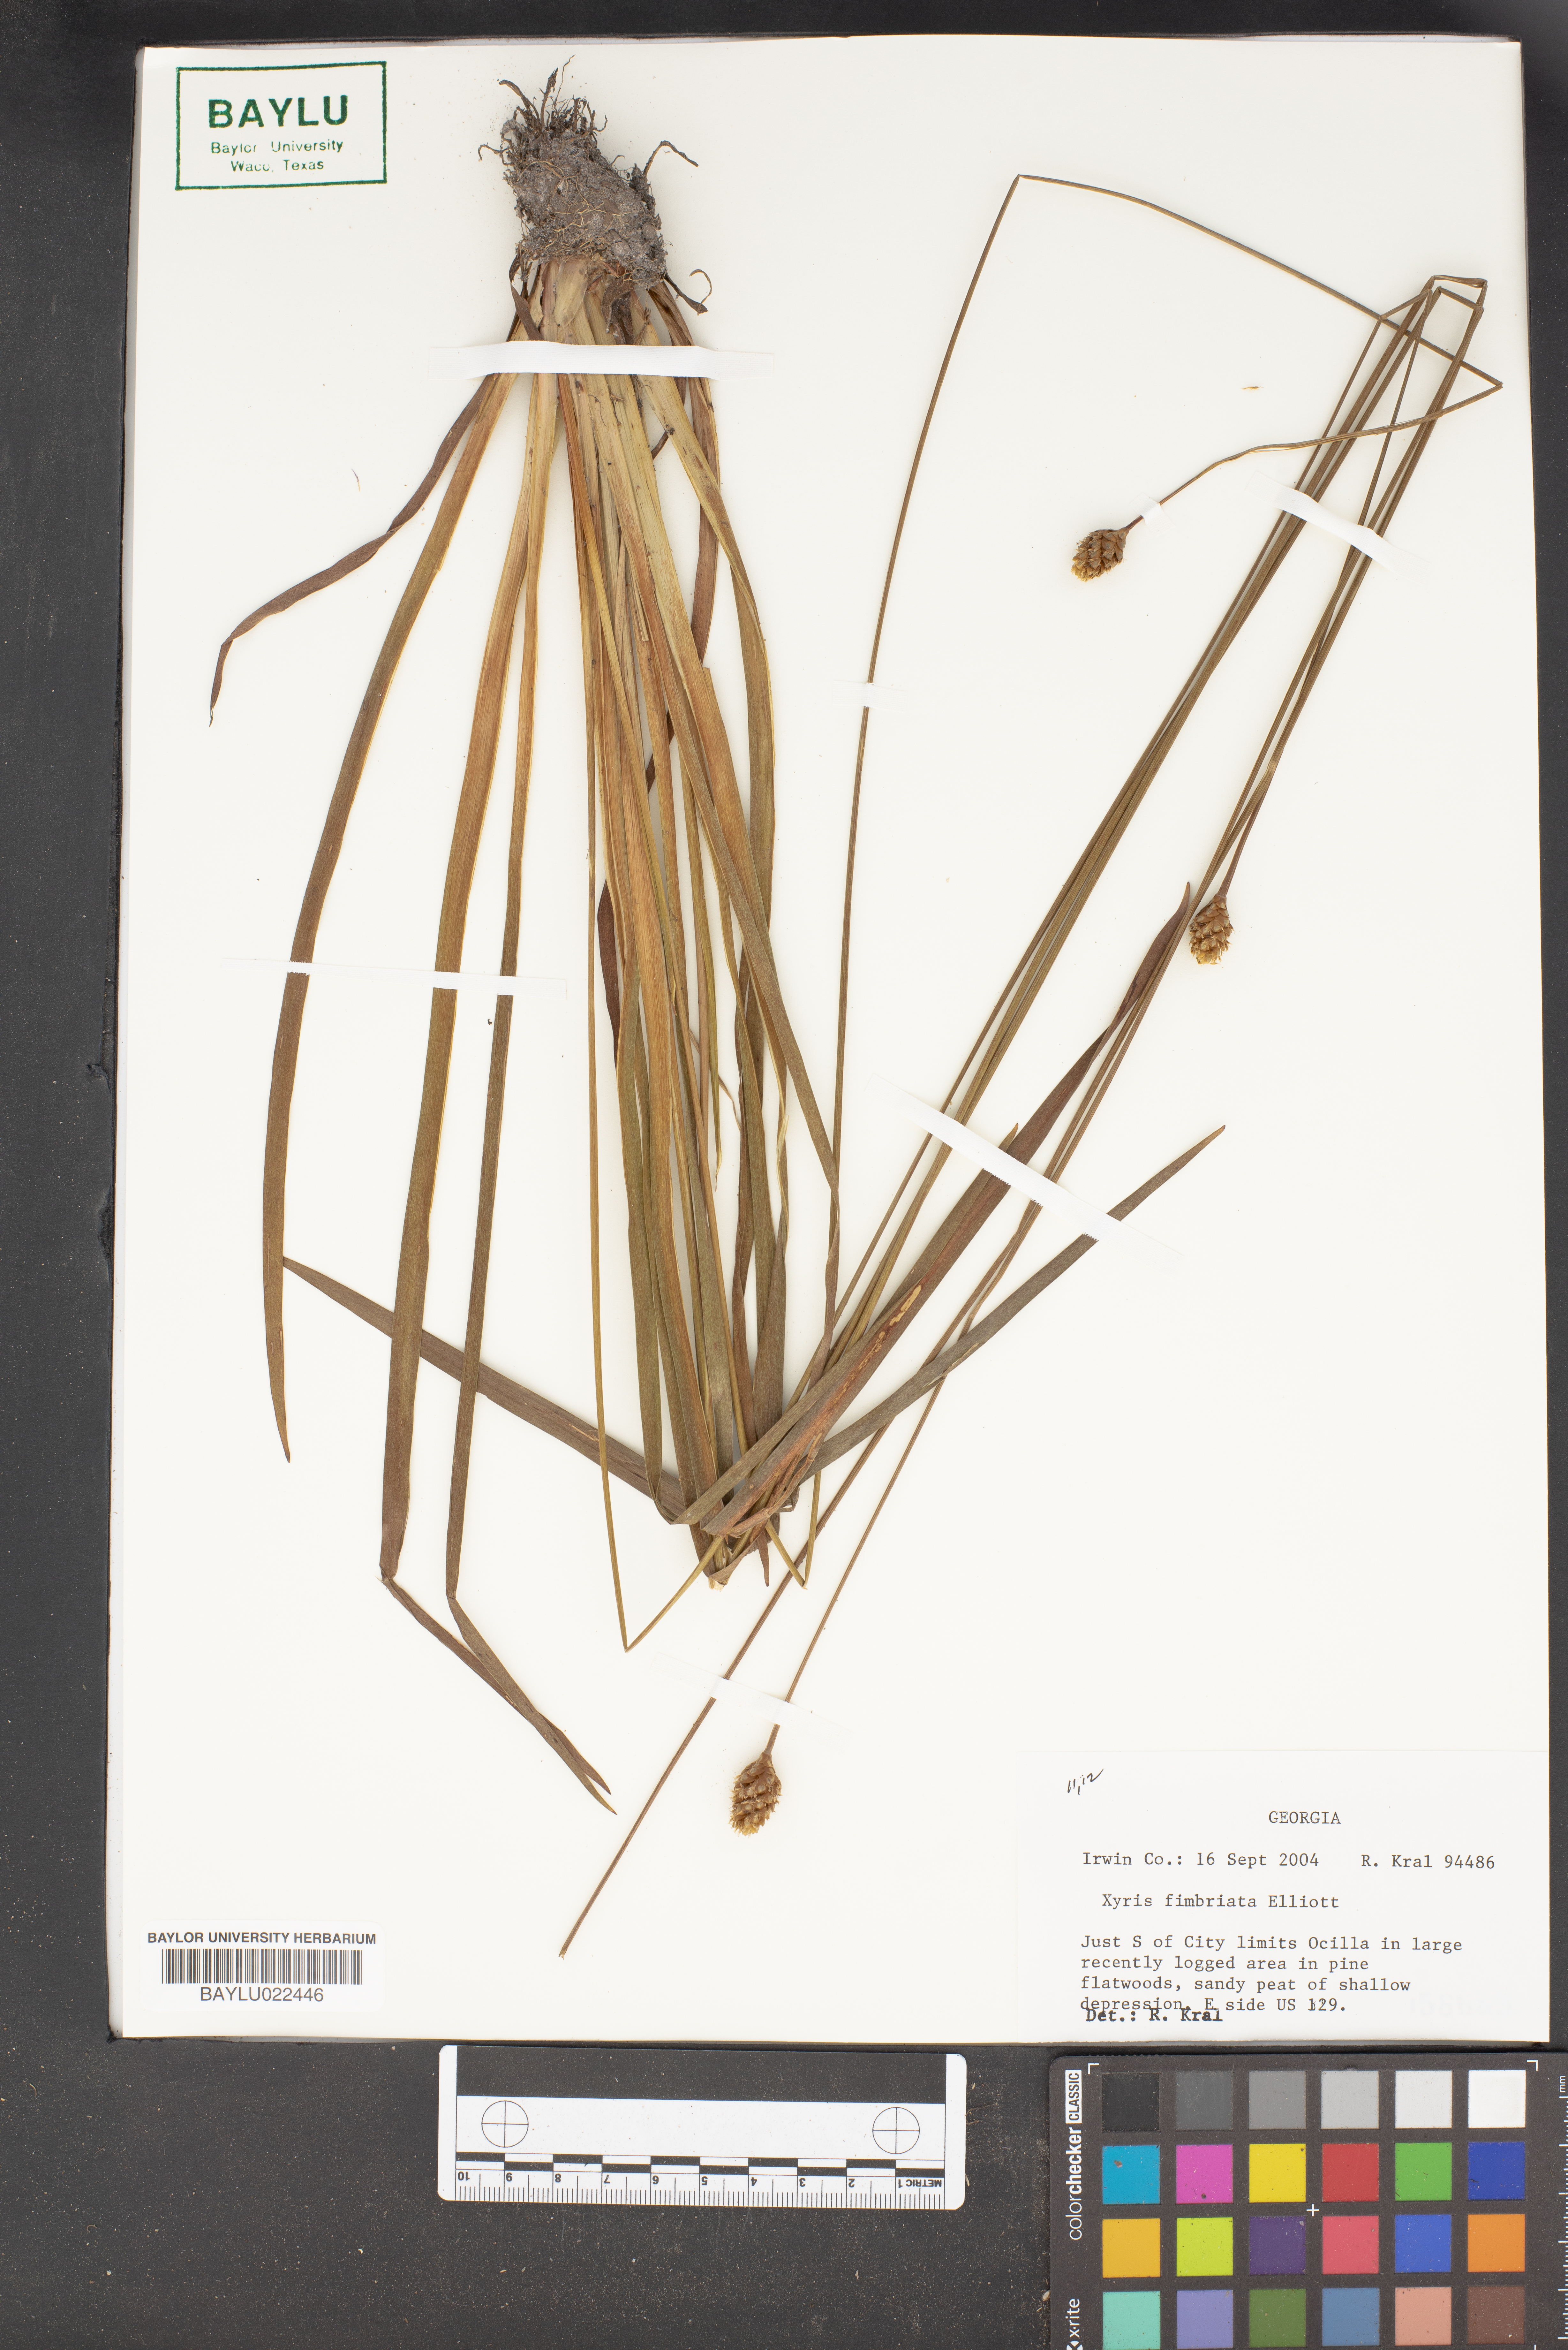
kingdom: Plantae
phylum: Tracheophyta
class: Liliopsida
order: Poales
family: Xyridaceae
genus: Xyris
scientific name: Xyris fimbriata
